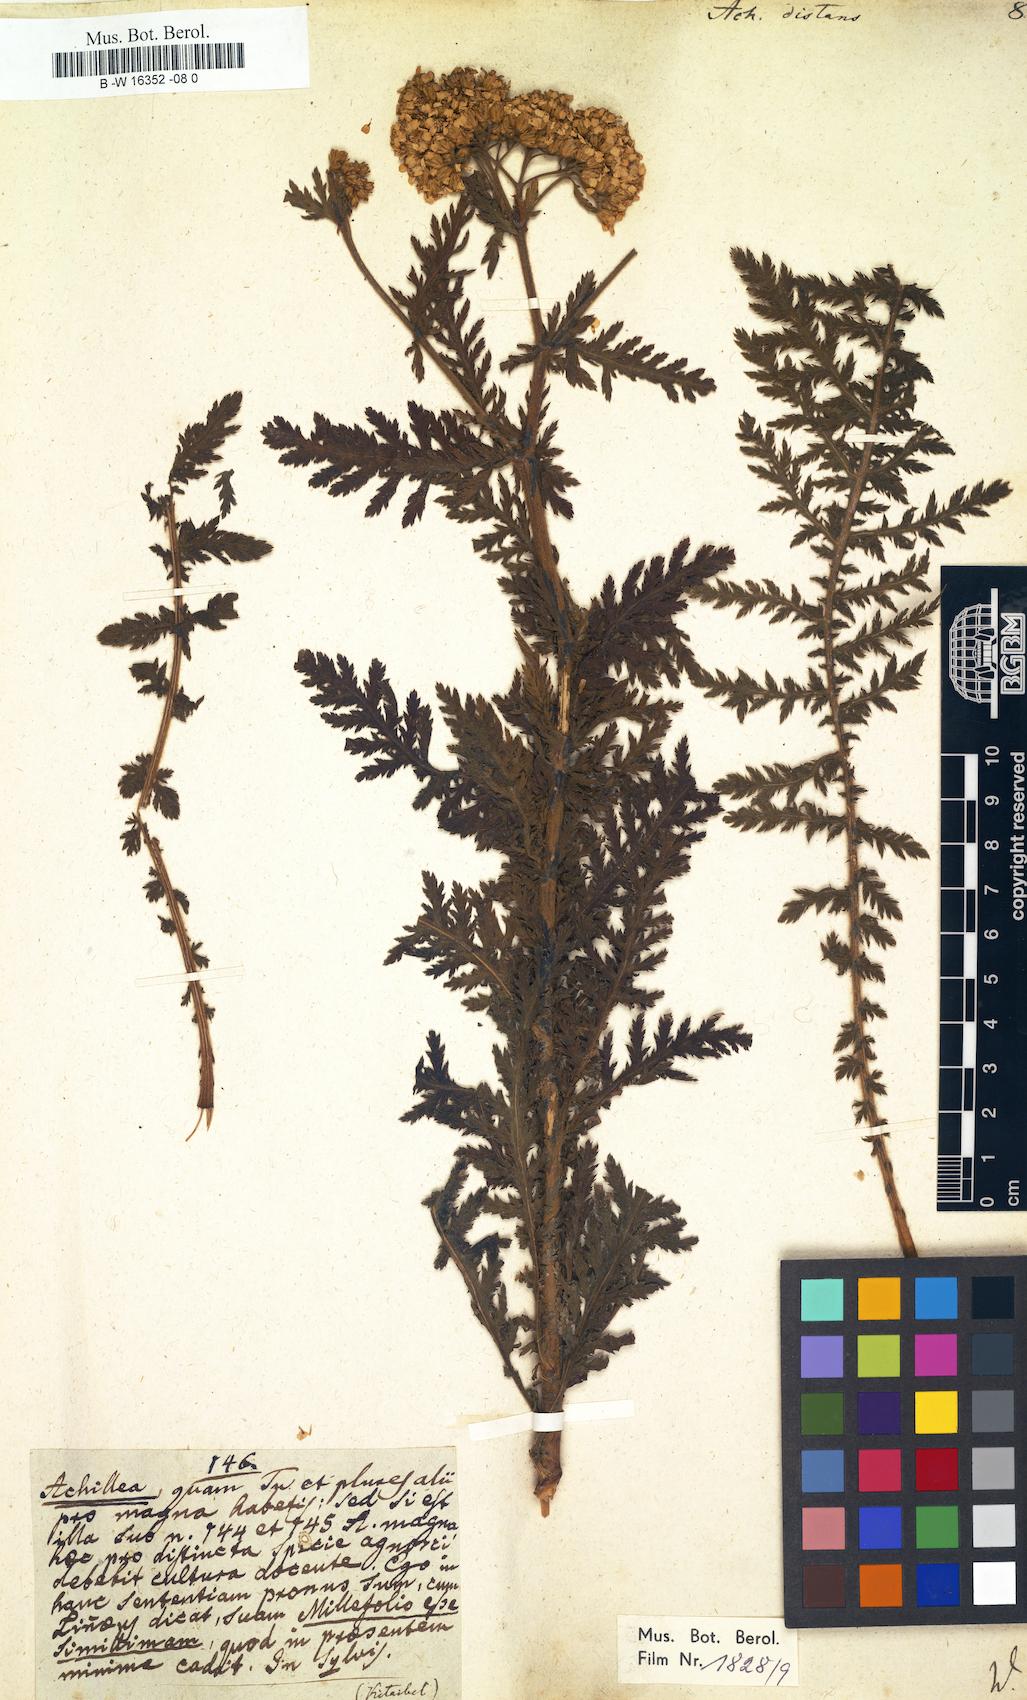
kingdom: Plantae
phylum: Tracheophyta
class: Magnoliopsida
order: Asterales
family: Asteraceae
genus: Achillea
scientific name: Achillea distans
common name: Tall yarrow
